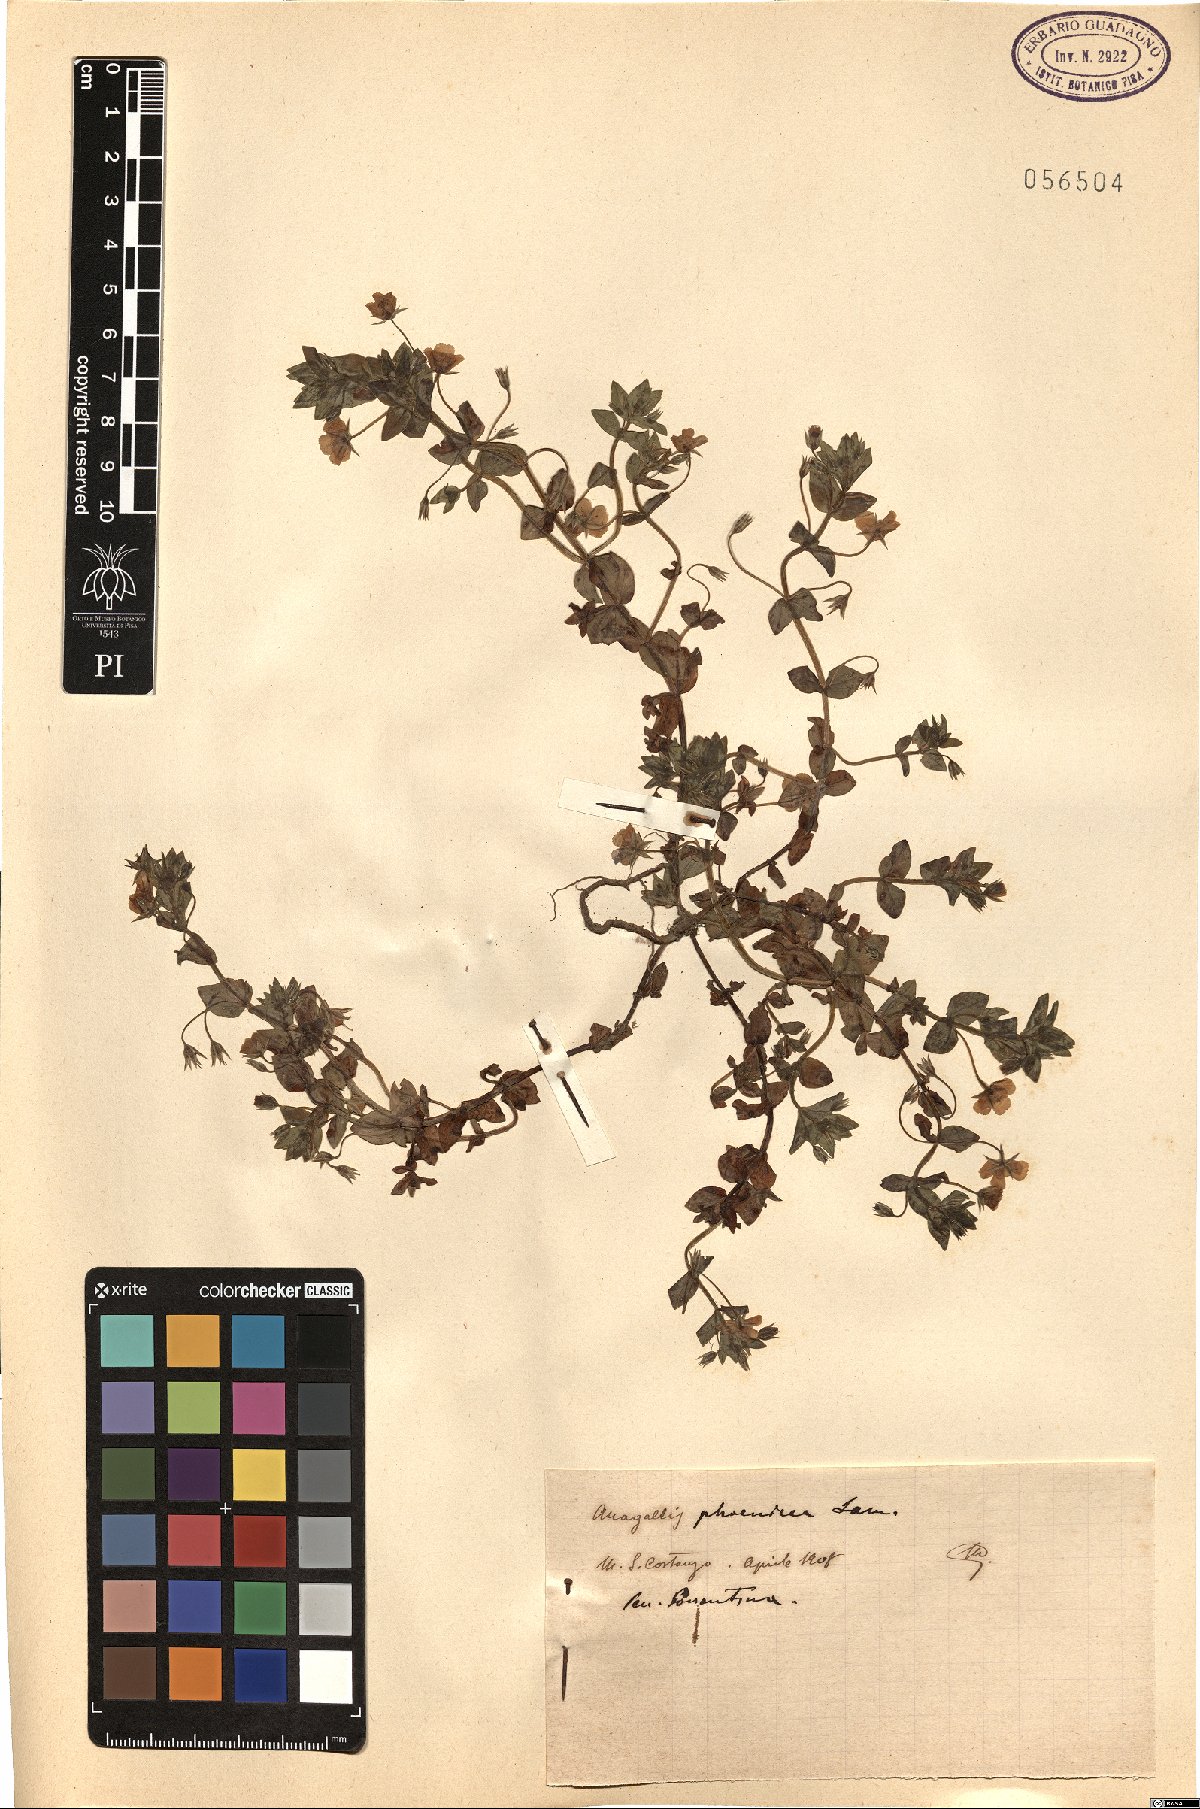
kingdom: Plantae
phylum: Tracheophyta
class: Magnoliopsida
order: Ericales
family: Primulaceae
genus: Lysimachia
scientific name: Lysimachia arvensis
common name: Scarlet pimpernel
